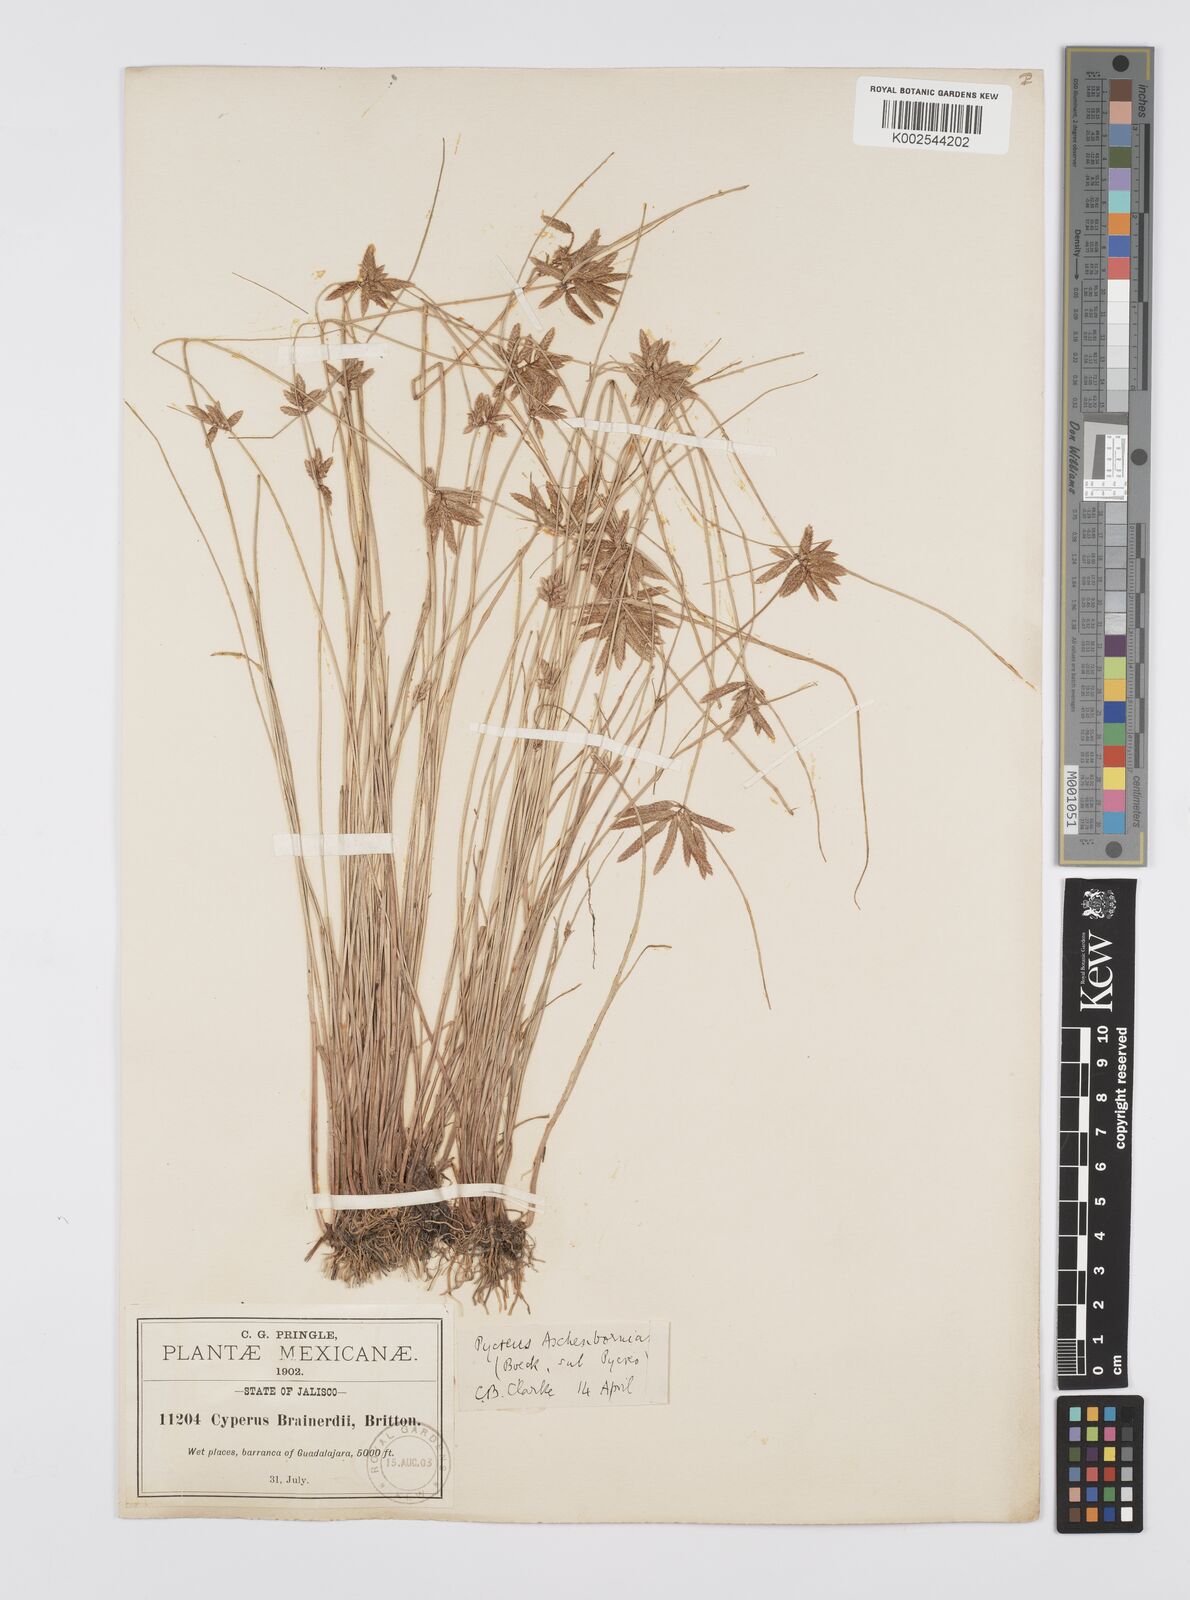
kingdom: Plantae
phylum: Tracheophyta
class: Liliopsida
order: Poales
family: Cyperaceae
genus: Cyperus
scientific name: Cyperus aschenbornianus
